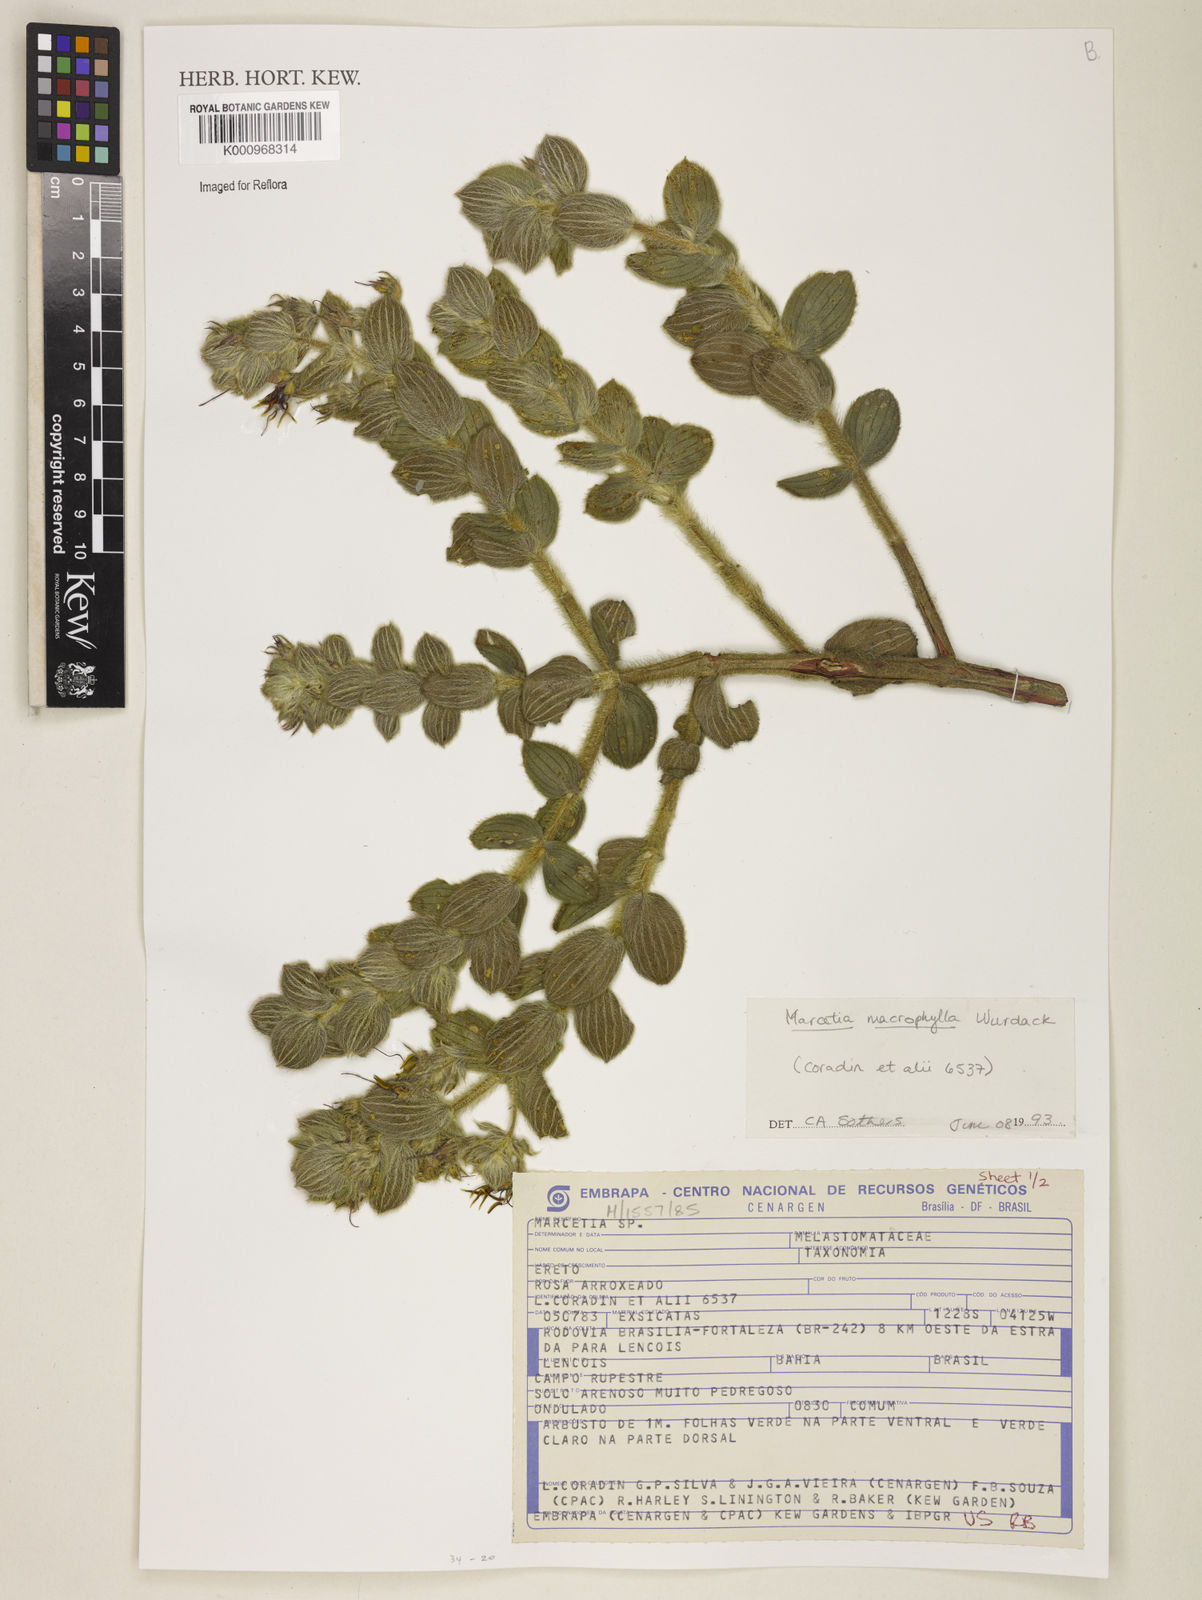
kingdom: Plantae
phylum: Tracheophyta
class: Magnoliopsida
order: Myrtales
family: Melastomataceae
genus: Marcetia
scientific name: Marcetia macrophylla
